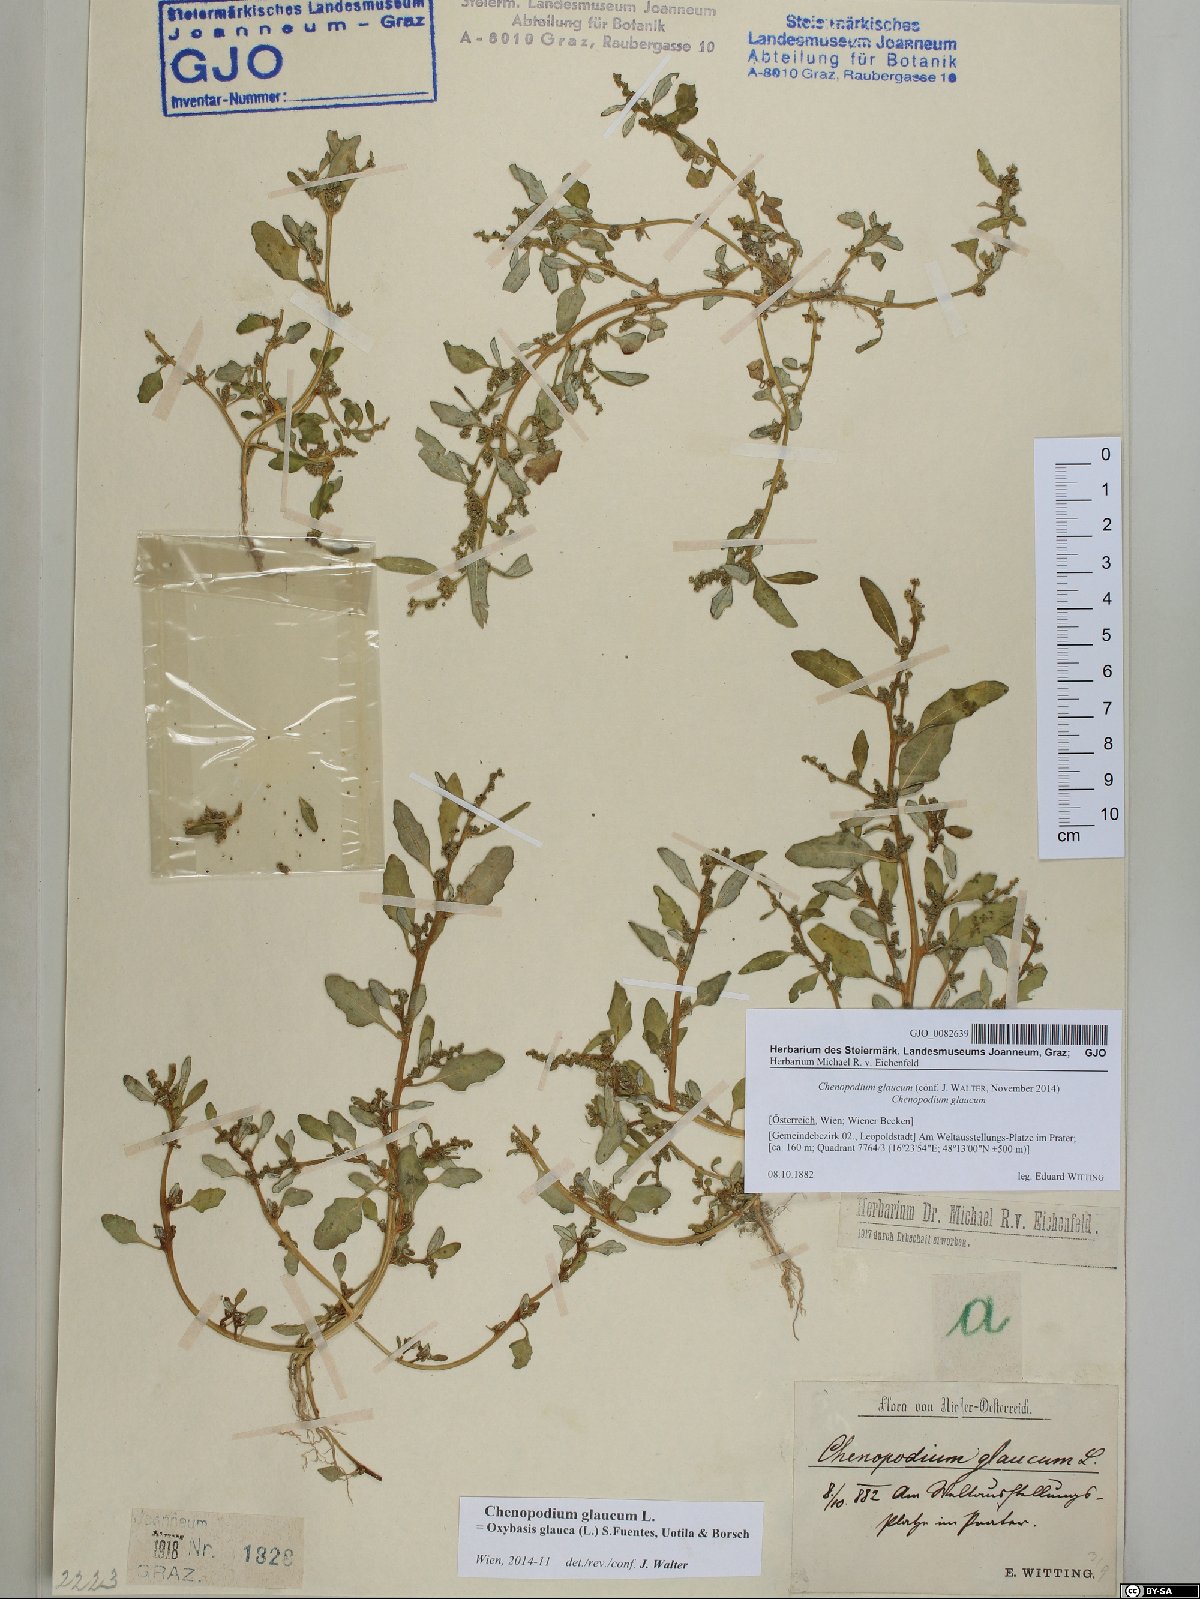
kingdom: Plantae
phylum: Tracheophyta
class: Magnoliopsida
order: Caryophyllales
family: Amaranthaceae
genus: Oxybasis
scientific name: Oxybasis glauca
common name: Glaucous goosefoot
